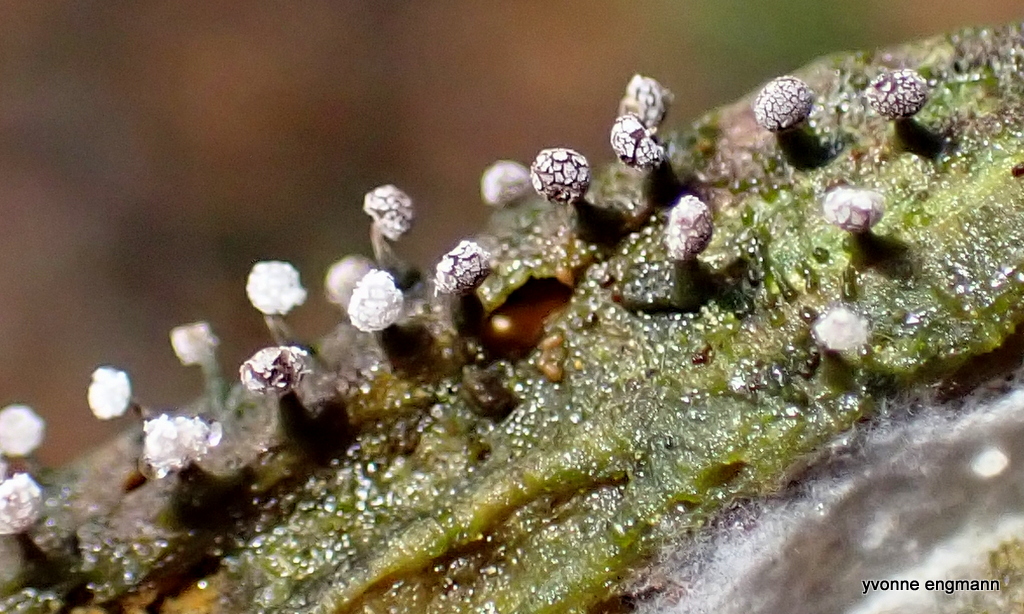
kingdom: Protozoa
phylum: Mycetozoa
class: Myxomycetes
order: Physarales
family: Physaraceae
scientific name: Physaraceae
